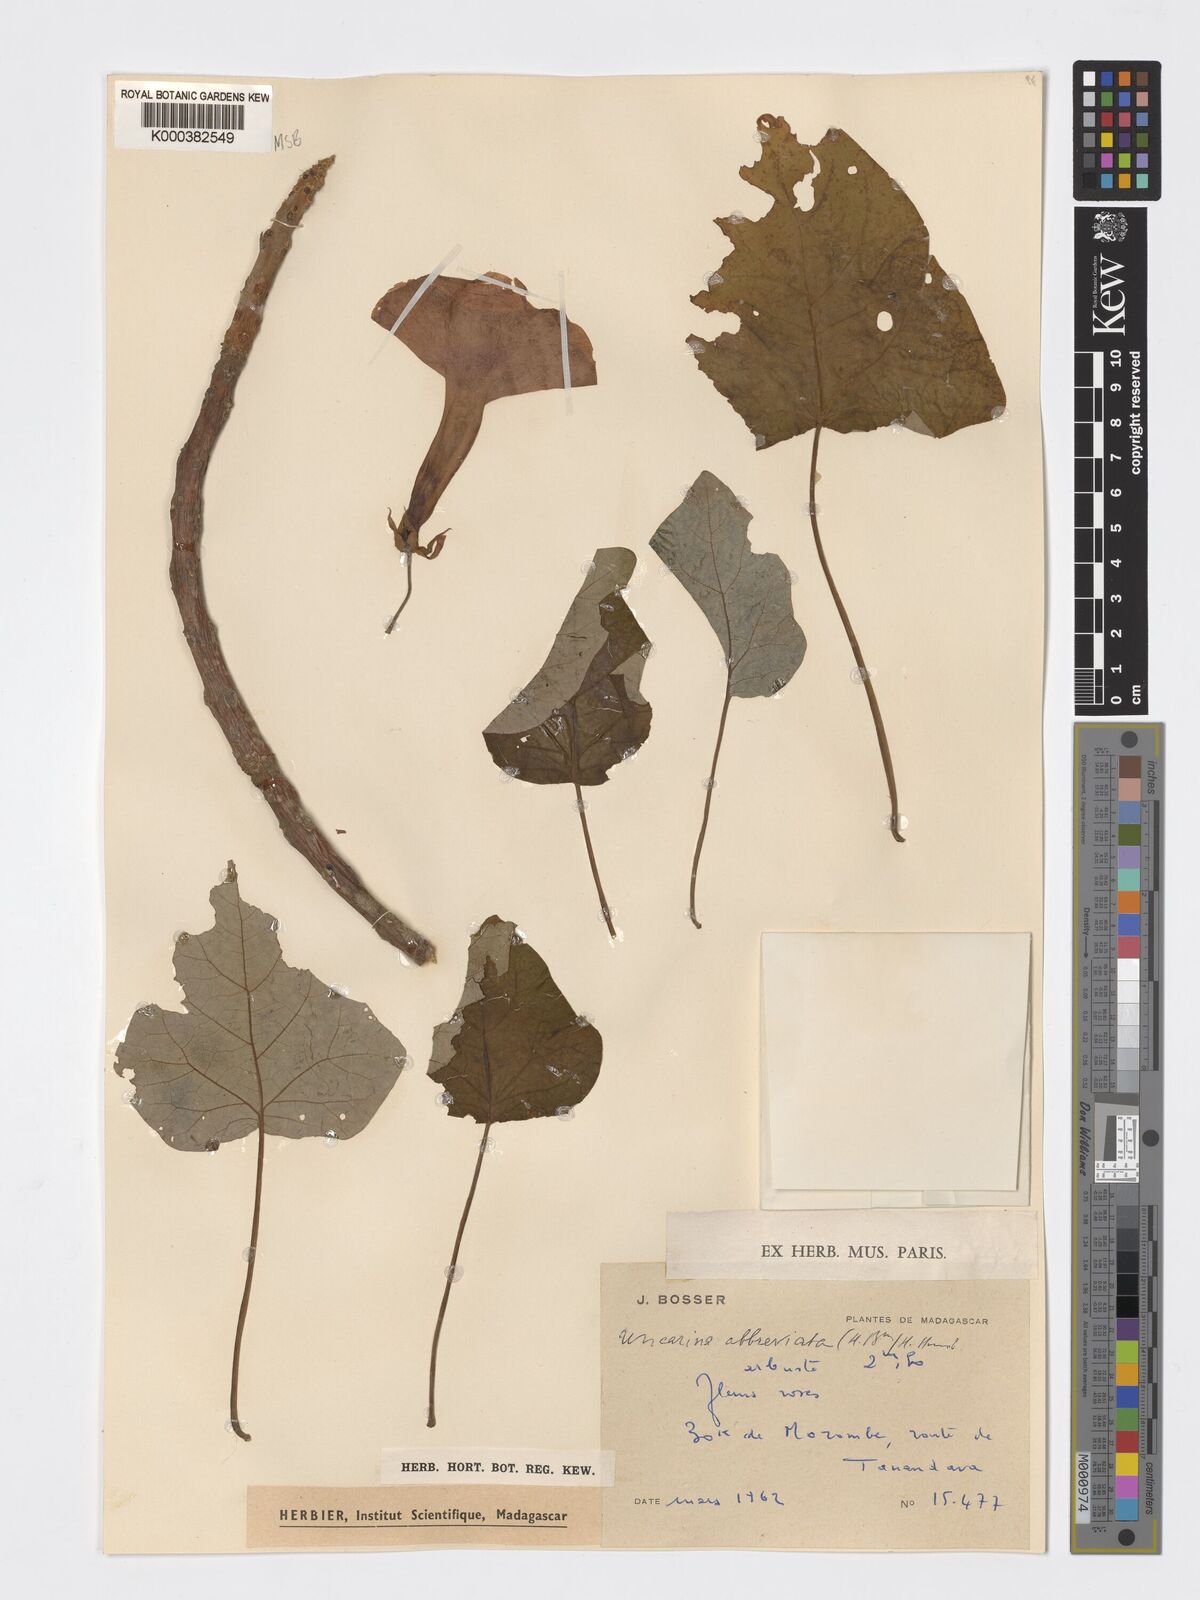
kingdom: Plantae
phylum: Tracheophyta
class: Magnoliopsida
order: Lamiales
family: Pedaliaceae
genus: Uncarina
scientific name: Uncarina abbreviata
